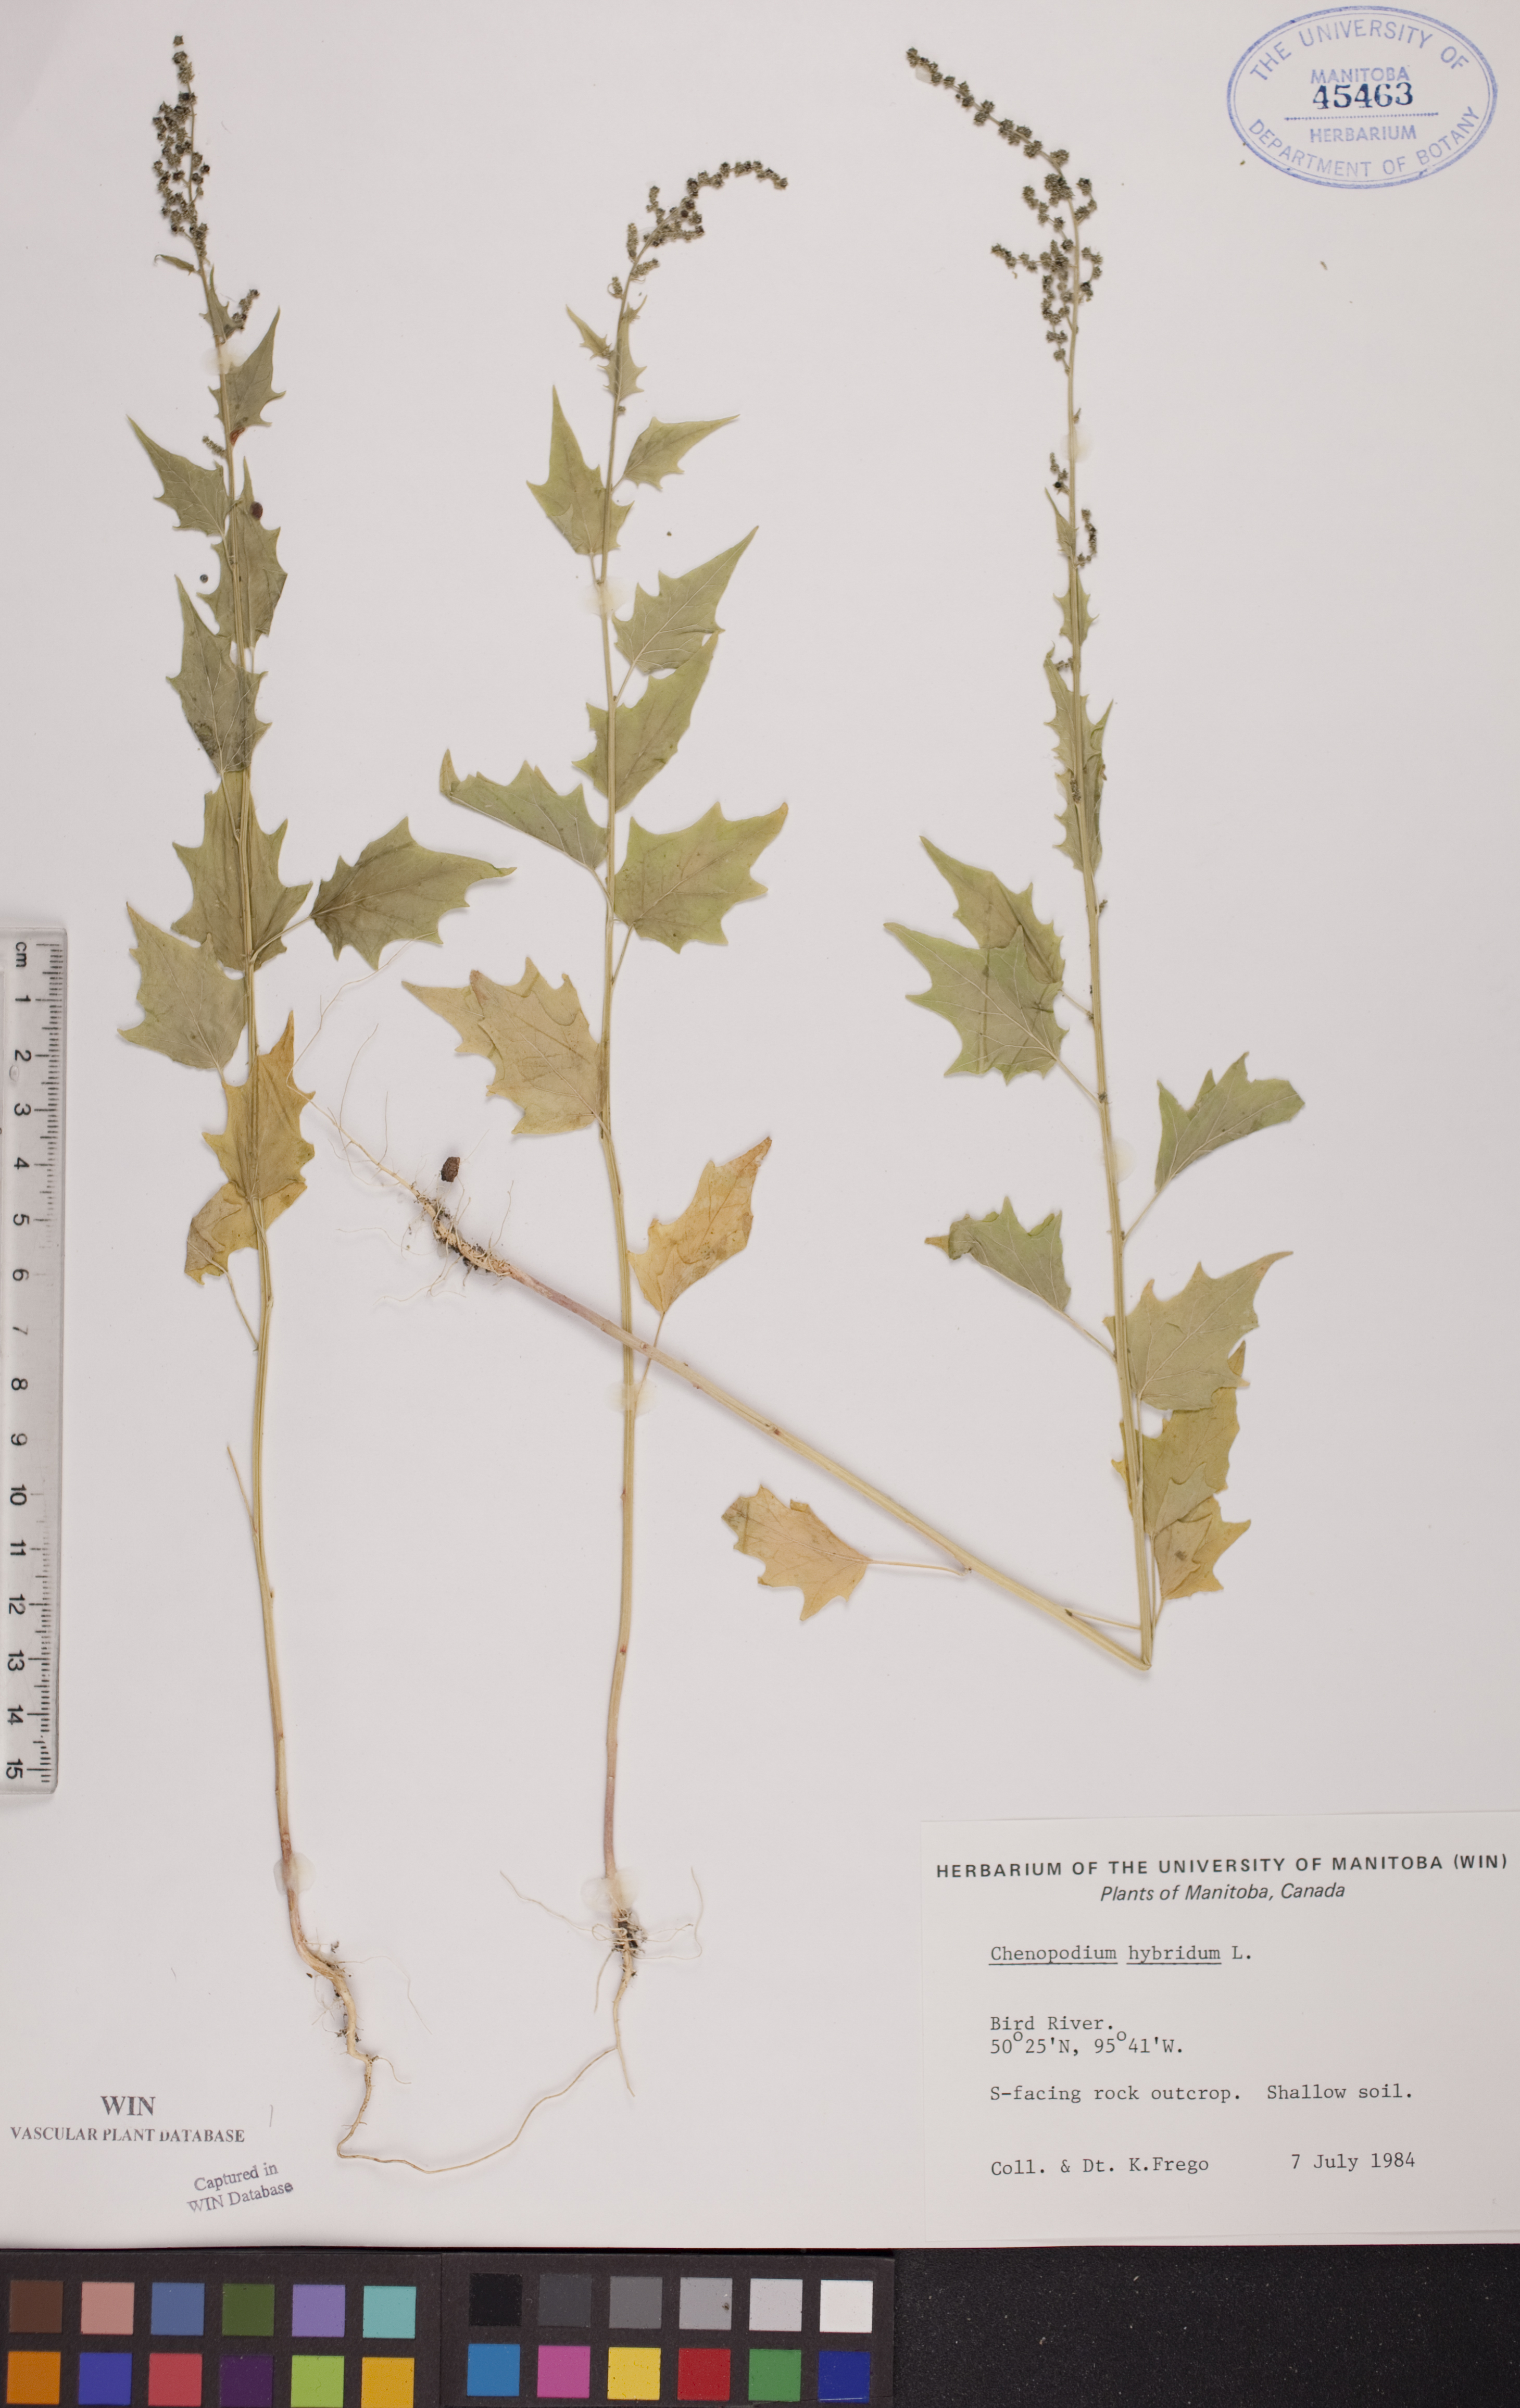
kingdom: Plantae
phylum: Tracheophyta
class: Magnoliopsida
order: Caryophyllales
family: Amaranthaceae
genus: Chenopodiastrum
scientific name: Chenopodiastrum hybridum
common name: Mapleleaf goosefoot
